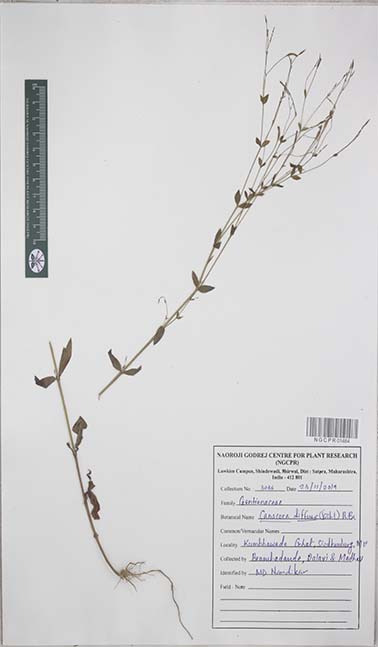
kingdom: Plantae
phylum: Tracheophyta
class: Magnoliopsida
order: Gentianales
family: Gentianaceae
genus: Canscora
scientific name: Canscora diffusa
